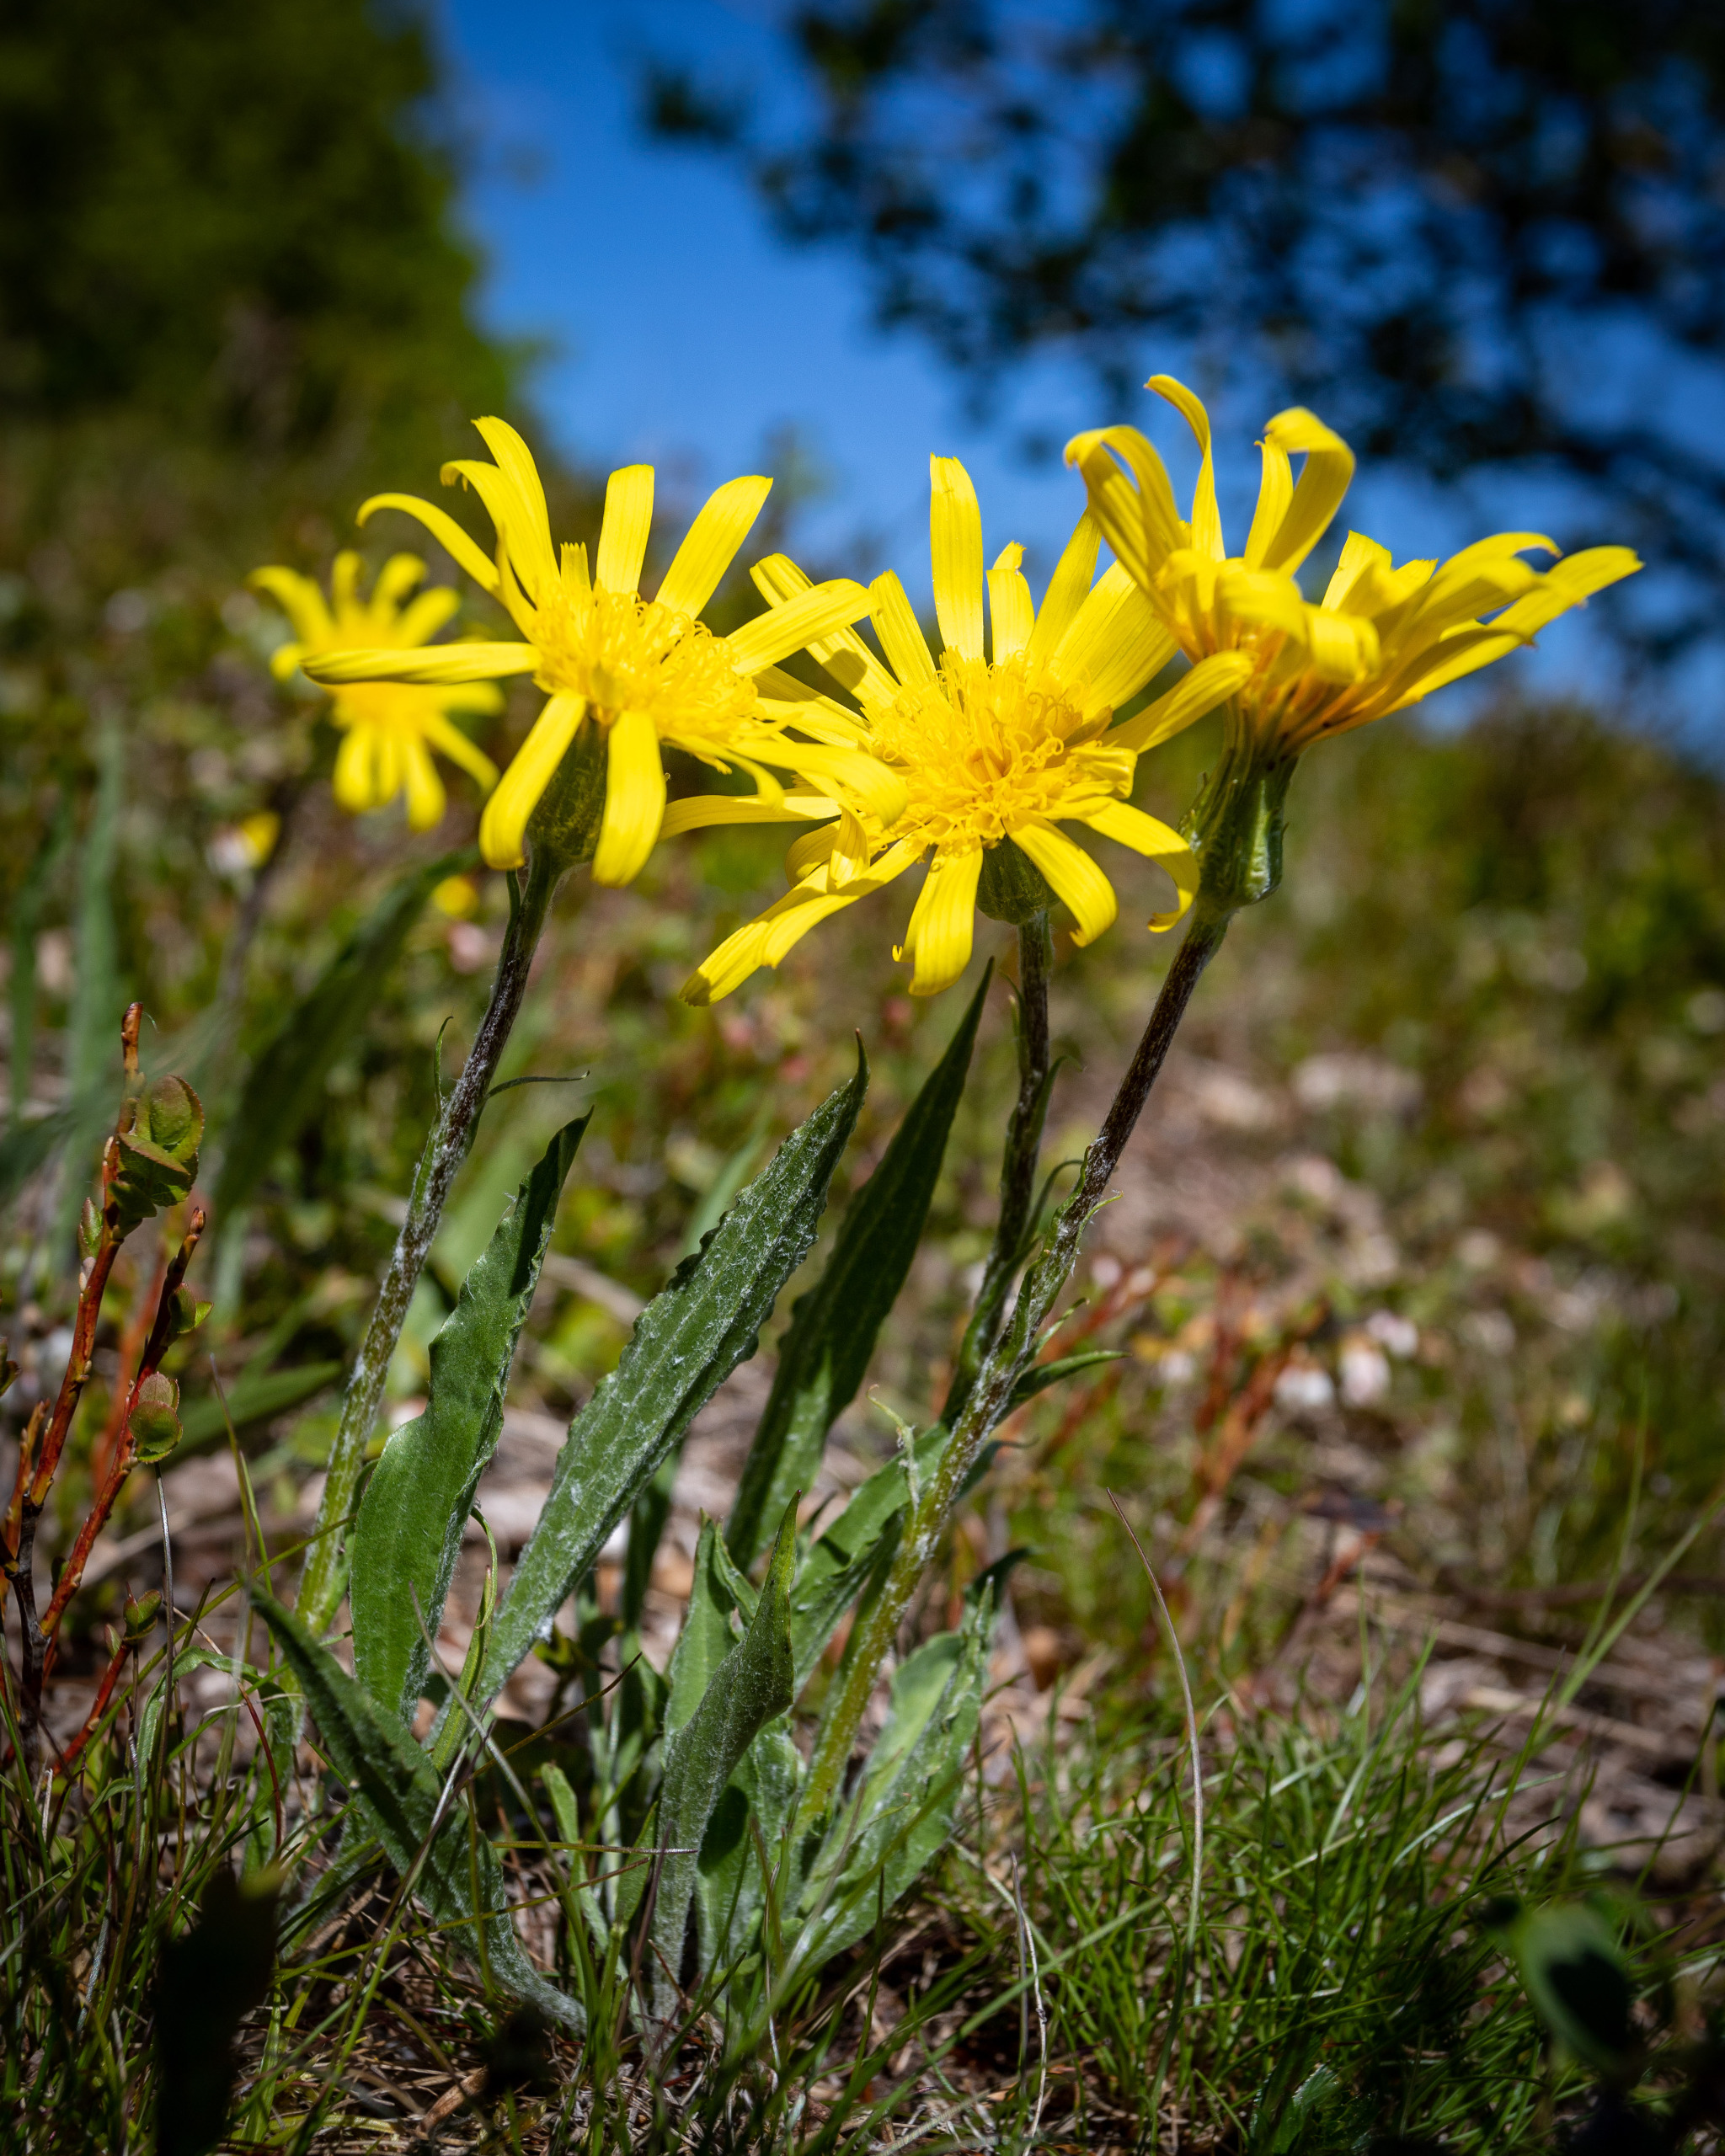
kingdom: Plantae
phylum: Tracheophyta
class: Magnoliopsida
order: Asterales
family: Asteraceae
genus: Scorzonera
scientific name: Scorzonera humilis
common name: Lav skorsoner
